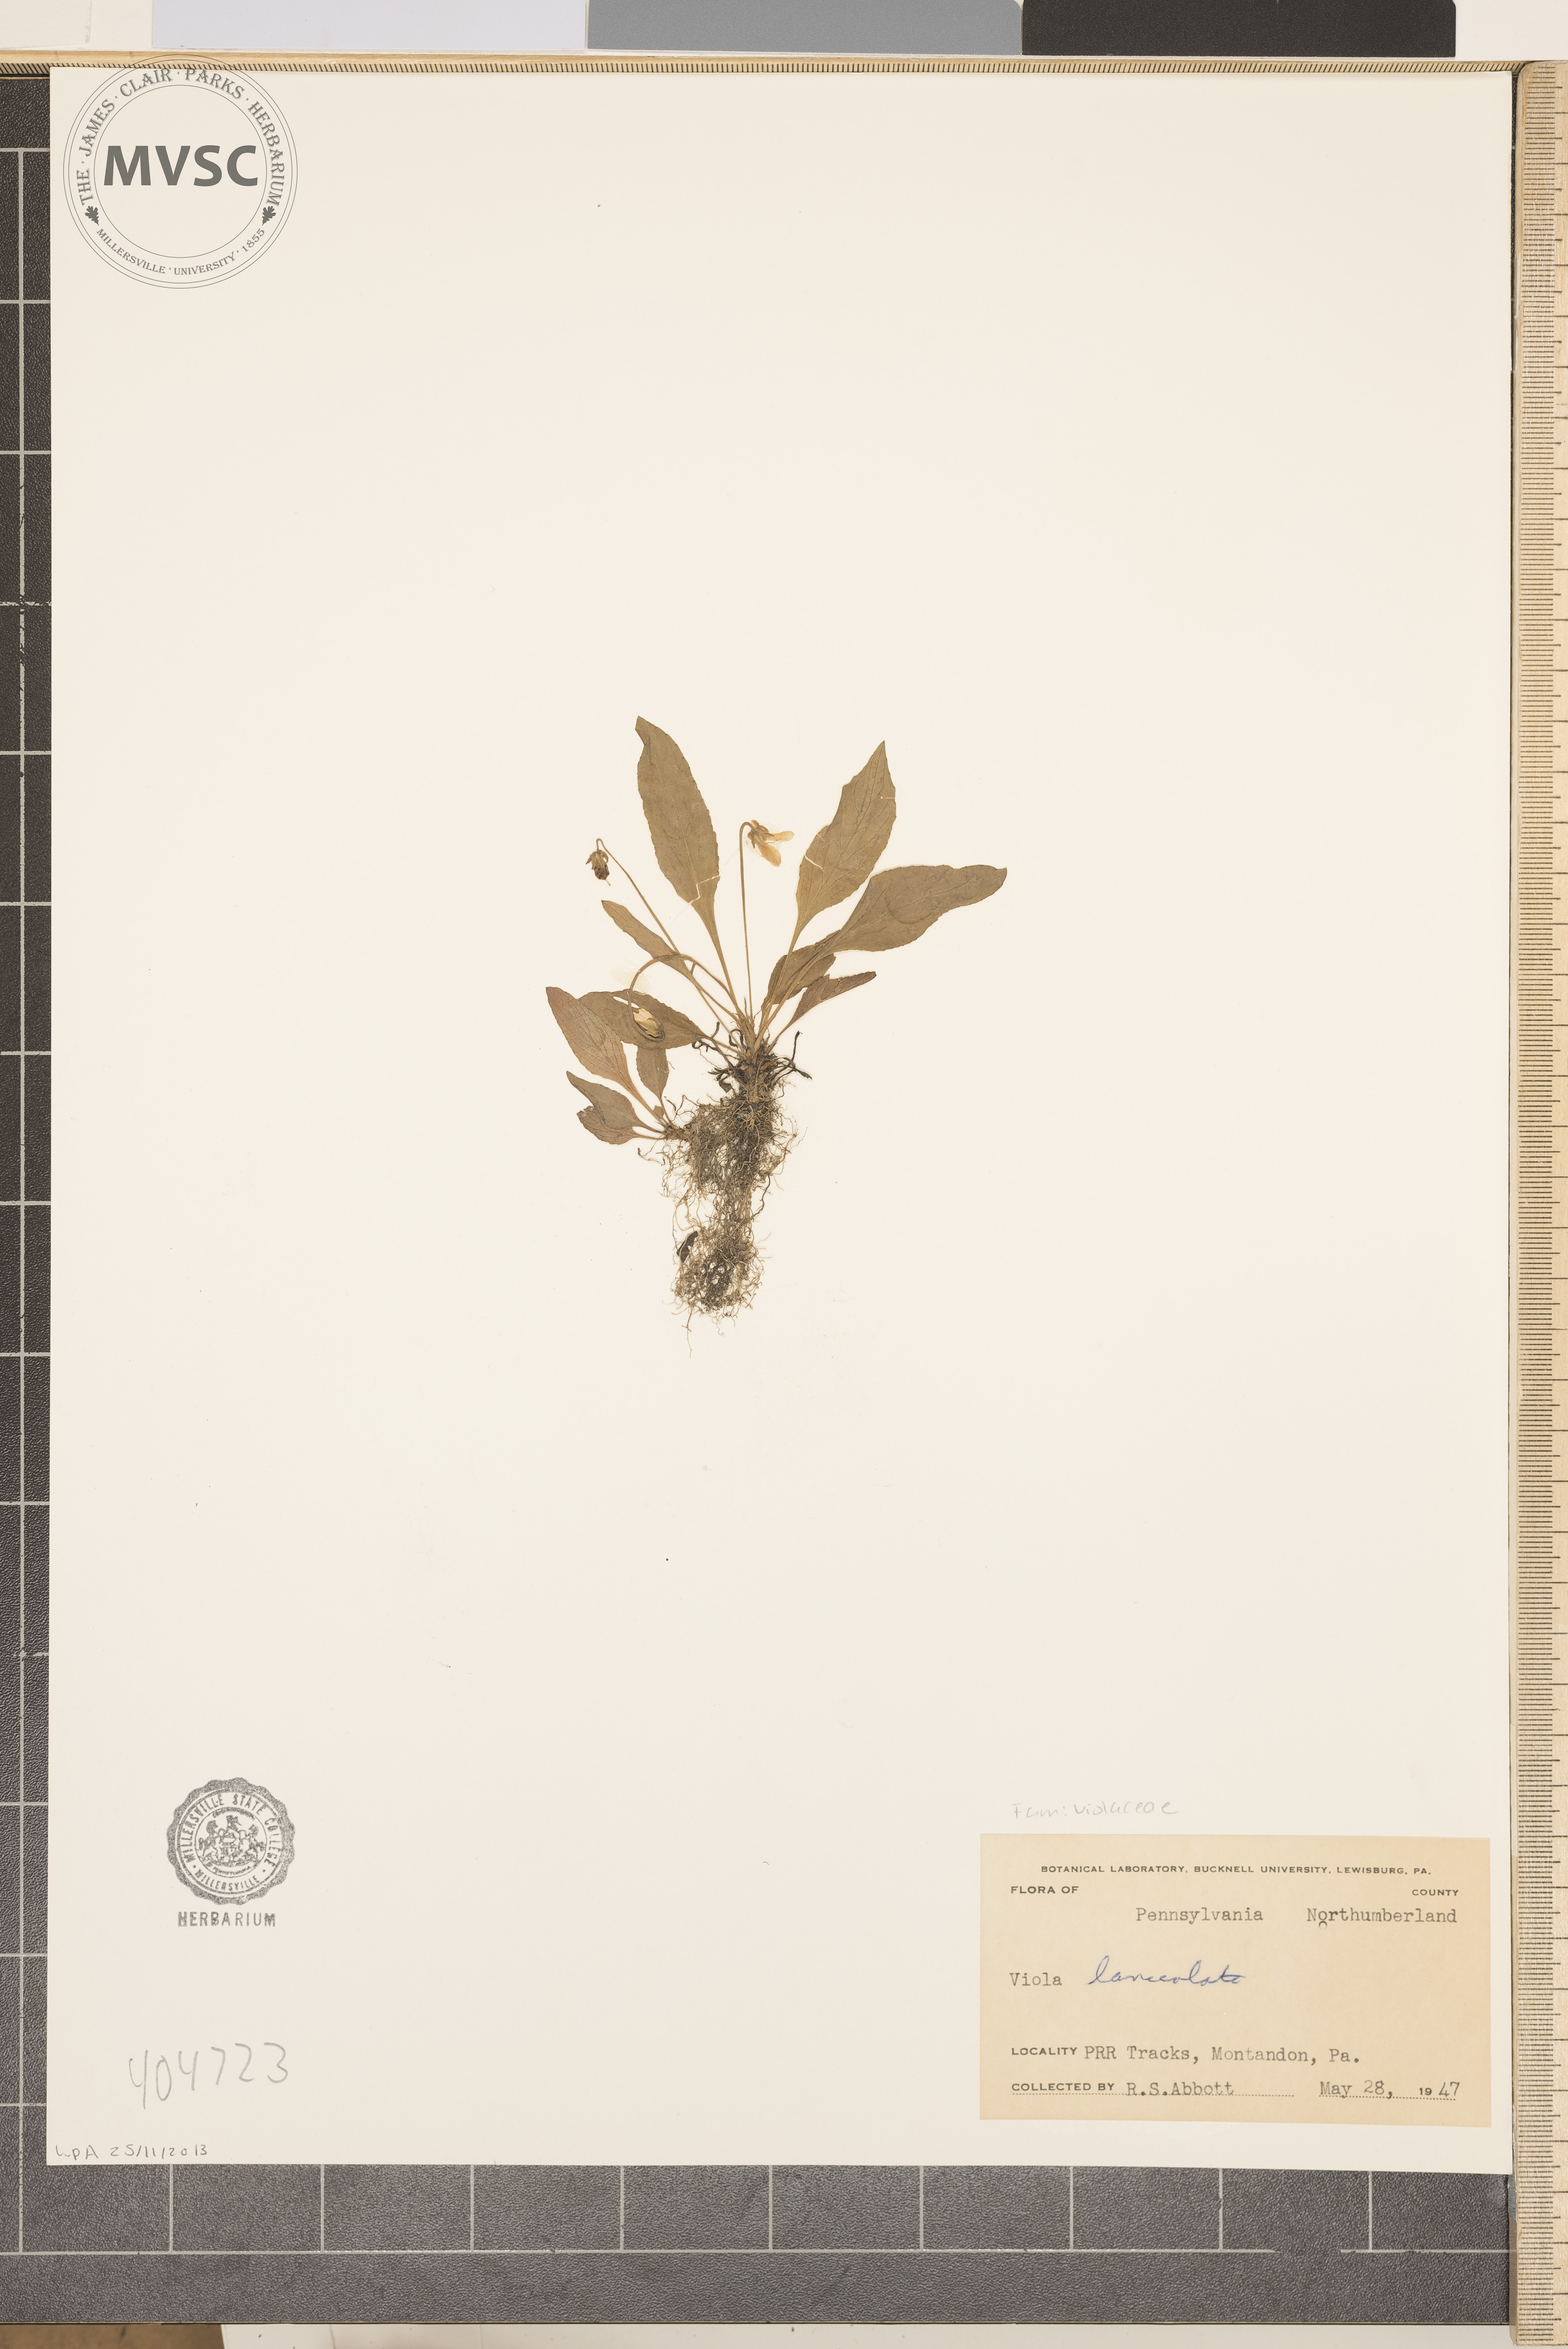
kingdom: Plantae
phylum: Tracheophyta
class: Magnoliopsida
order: Malpighiales
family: Violaceae
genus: Viola
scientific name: Viola lanceolata
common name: Bog white violet
